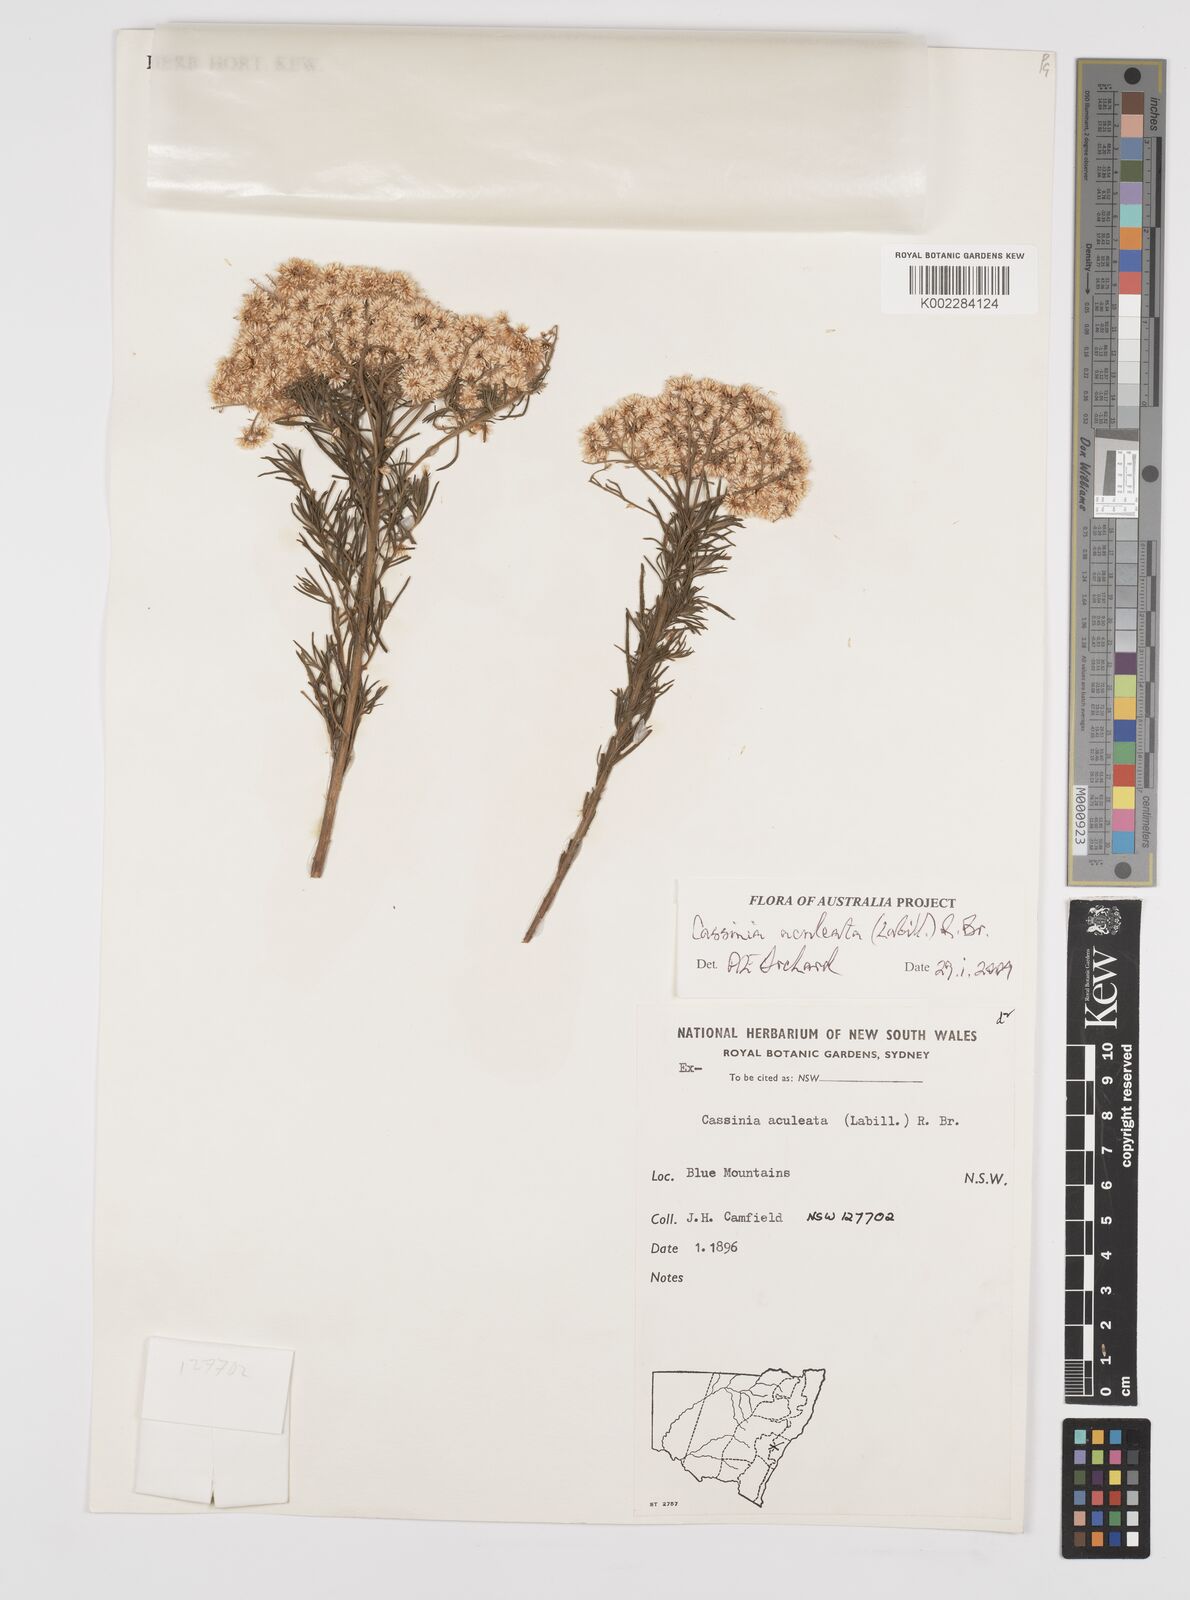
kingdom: Plantae
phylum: Tracheophyta
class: Magnoliopsida
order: Asterales
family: Asteraceae
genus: Cassinia
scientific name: Cassinia aculeata
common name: Australian tauhinu
